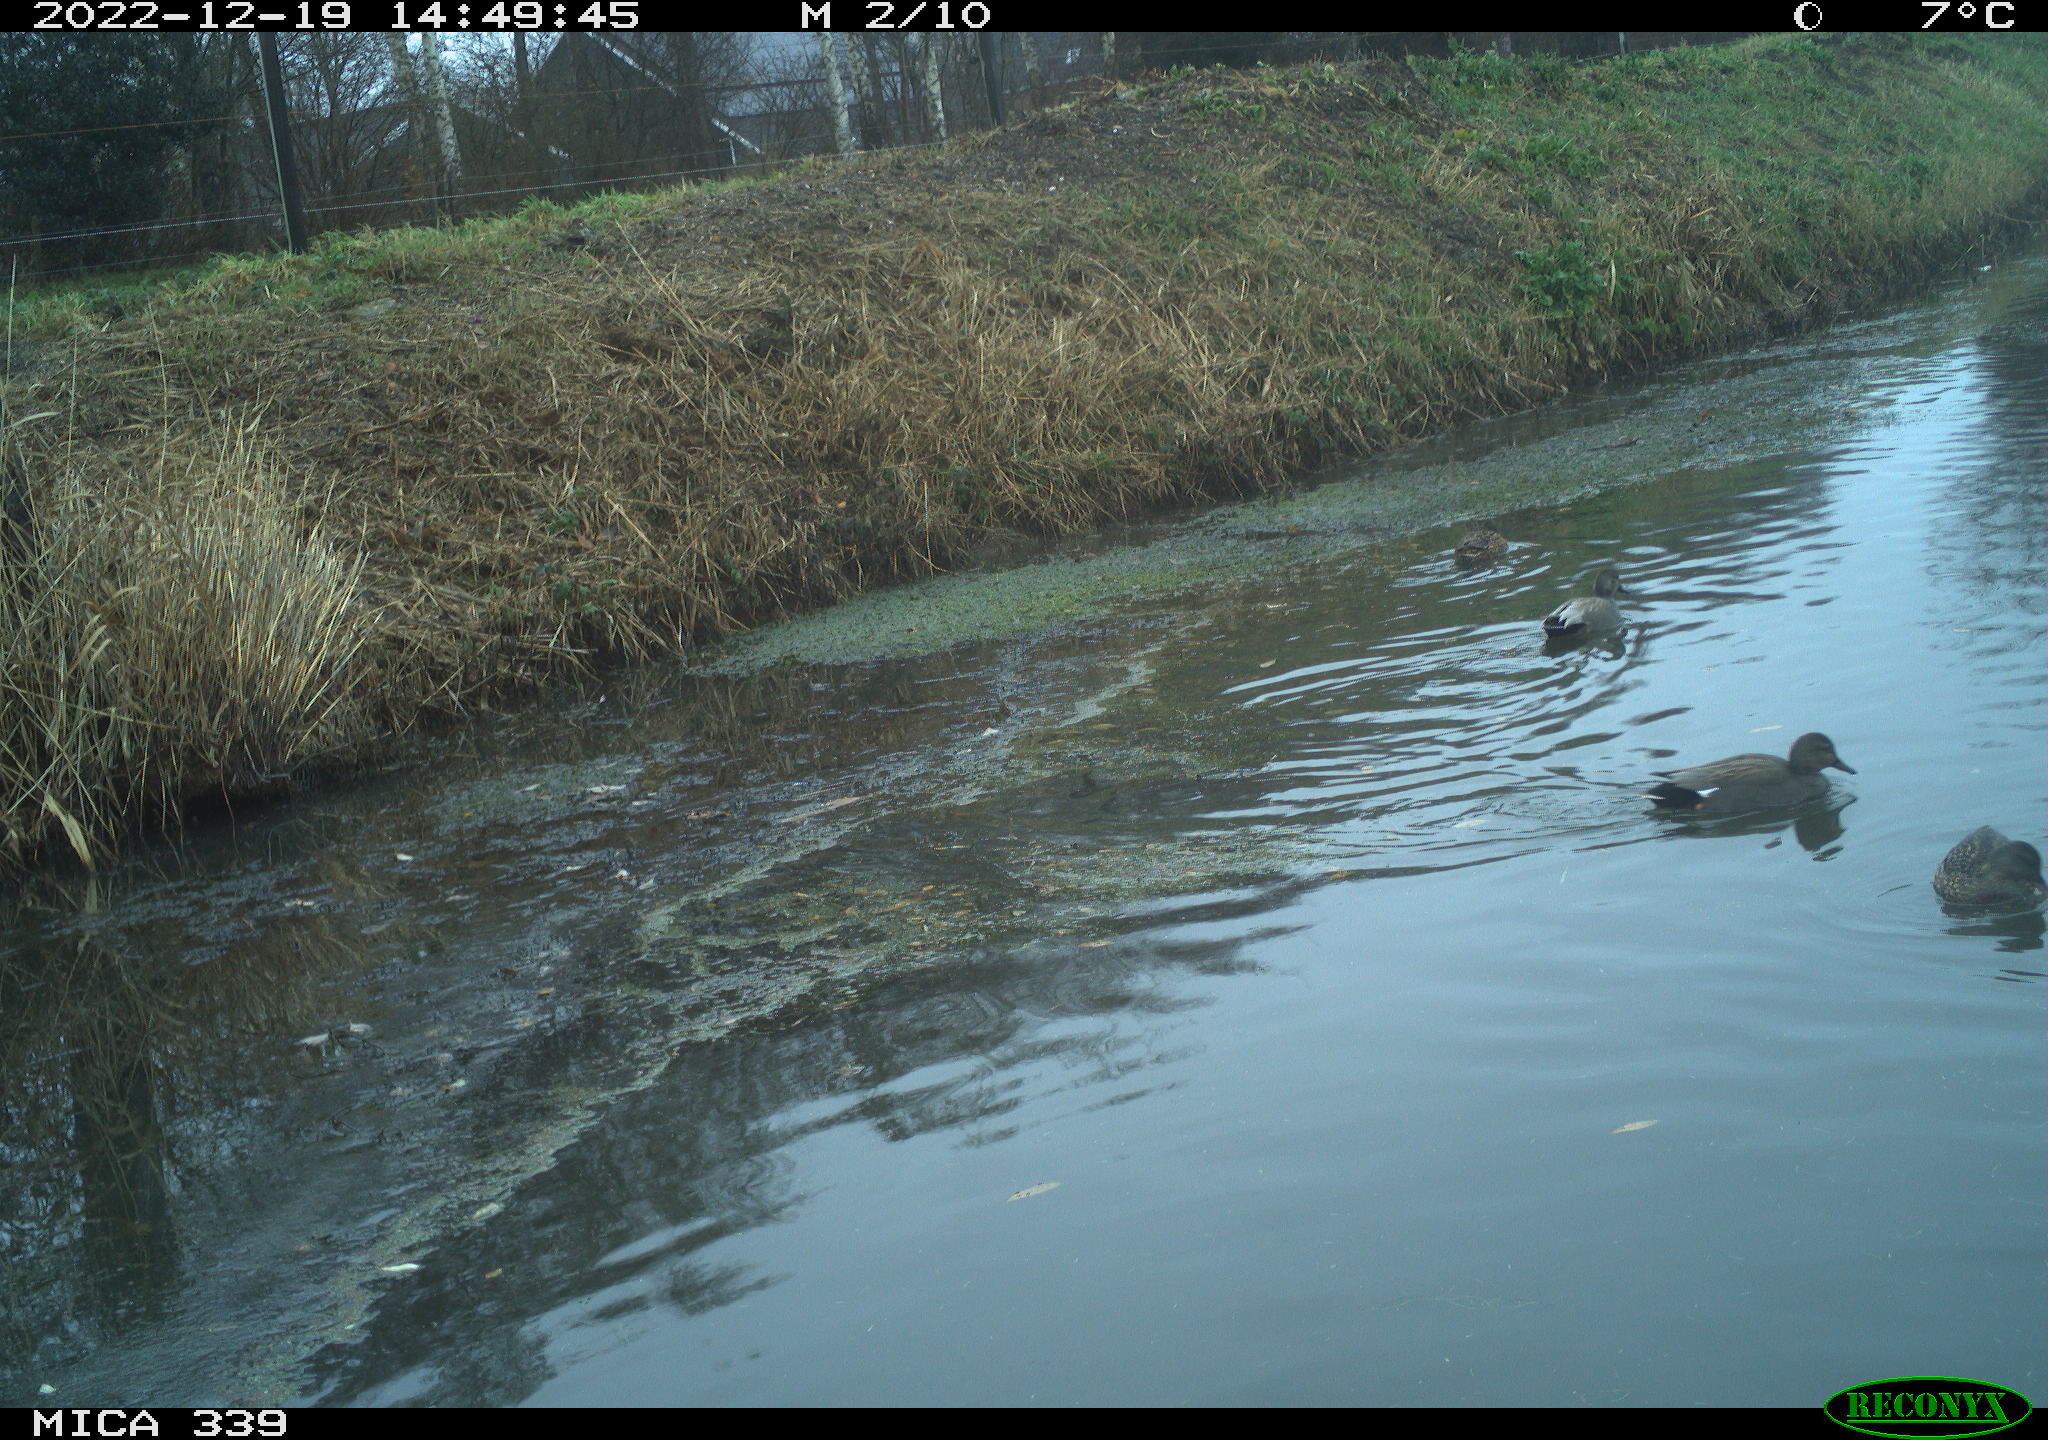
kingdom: Animalia
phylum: Chordata
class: Aves
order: Anseriformes
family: Anatidae
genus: Anas
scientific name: Anas
